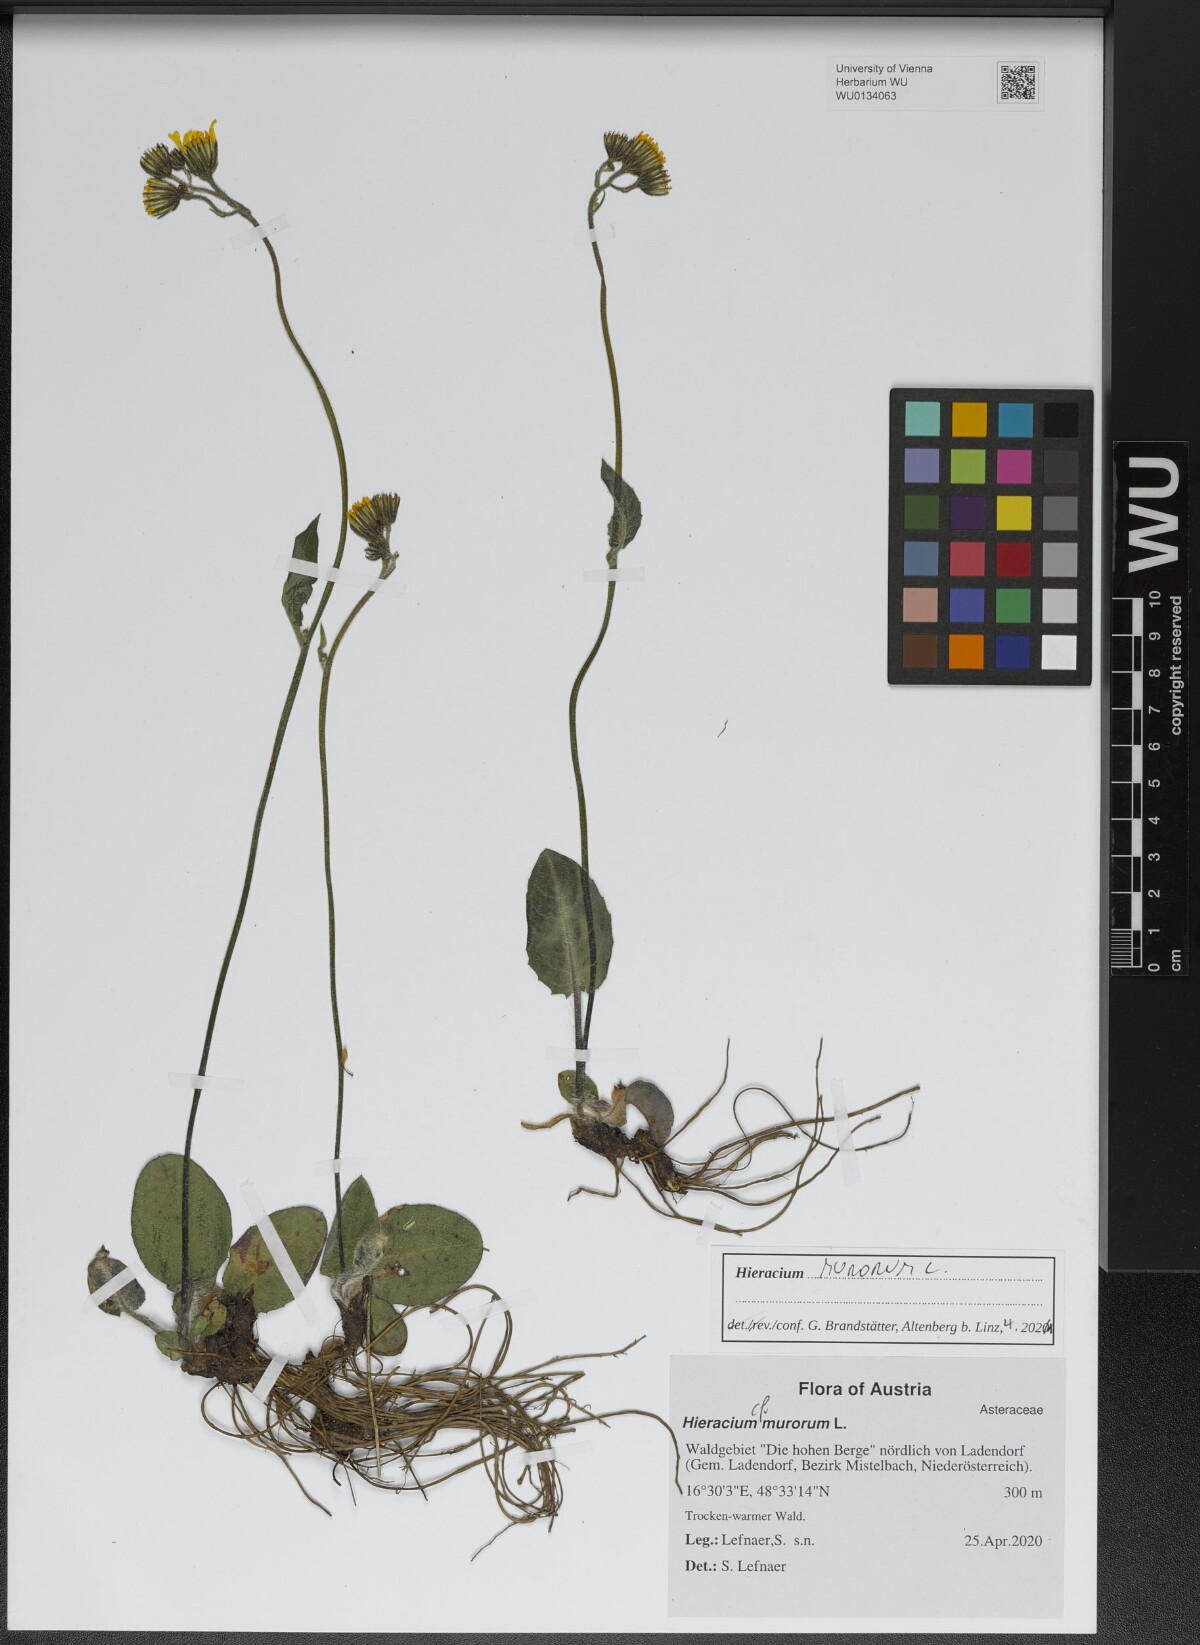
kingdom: Plantae
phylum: Tracheophyta
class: Magnoliopsida
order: Asterales
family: Asteraceae
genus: Hieracium
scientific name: Hieracium murorum
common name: Wall hawkweed
